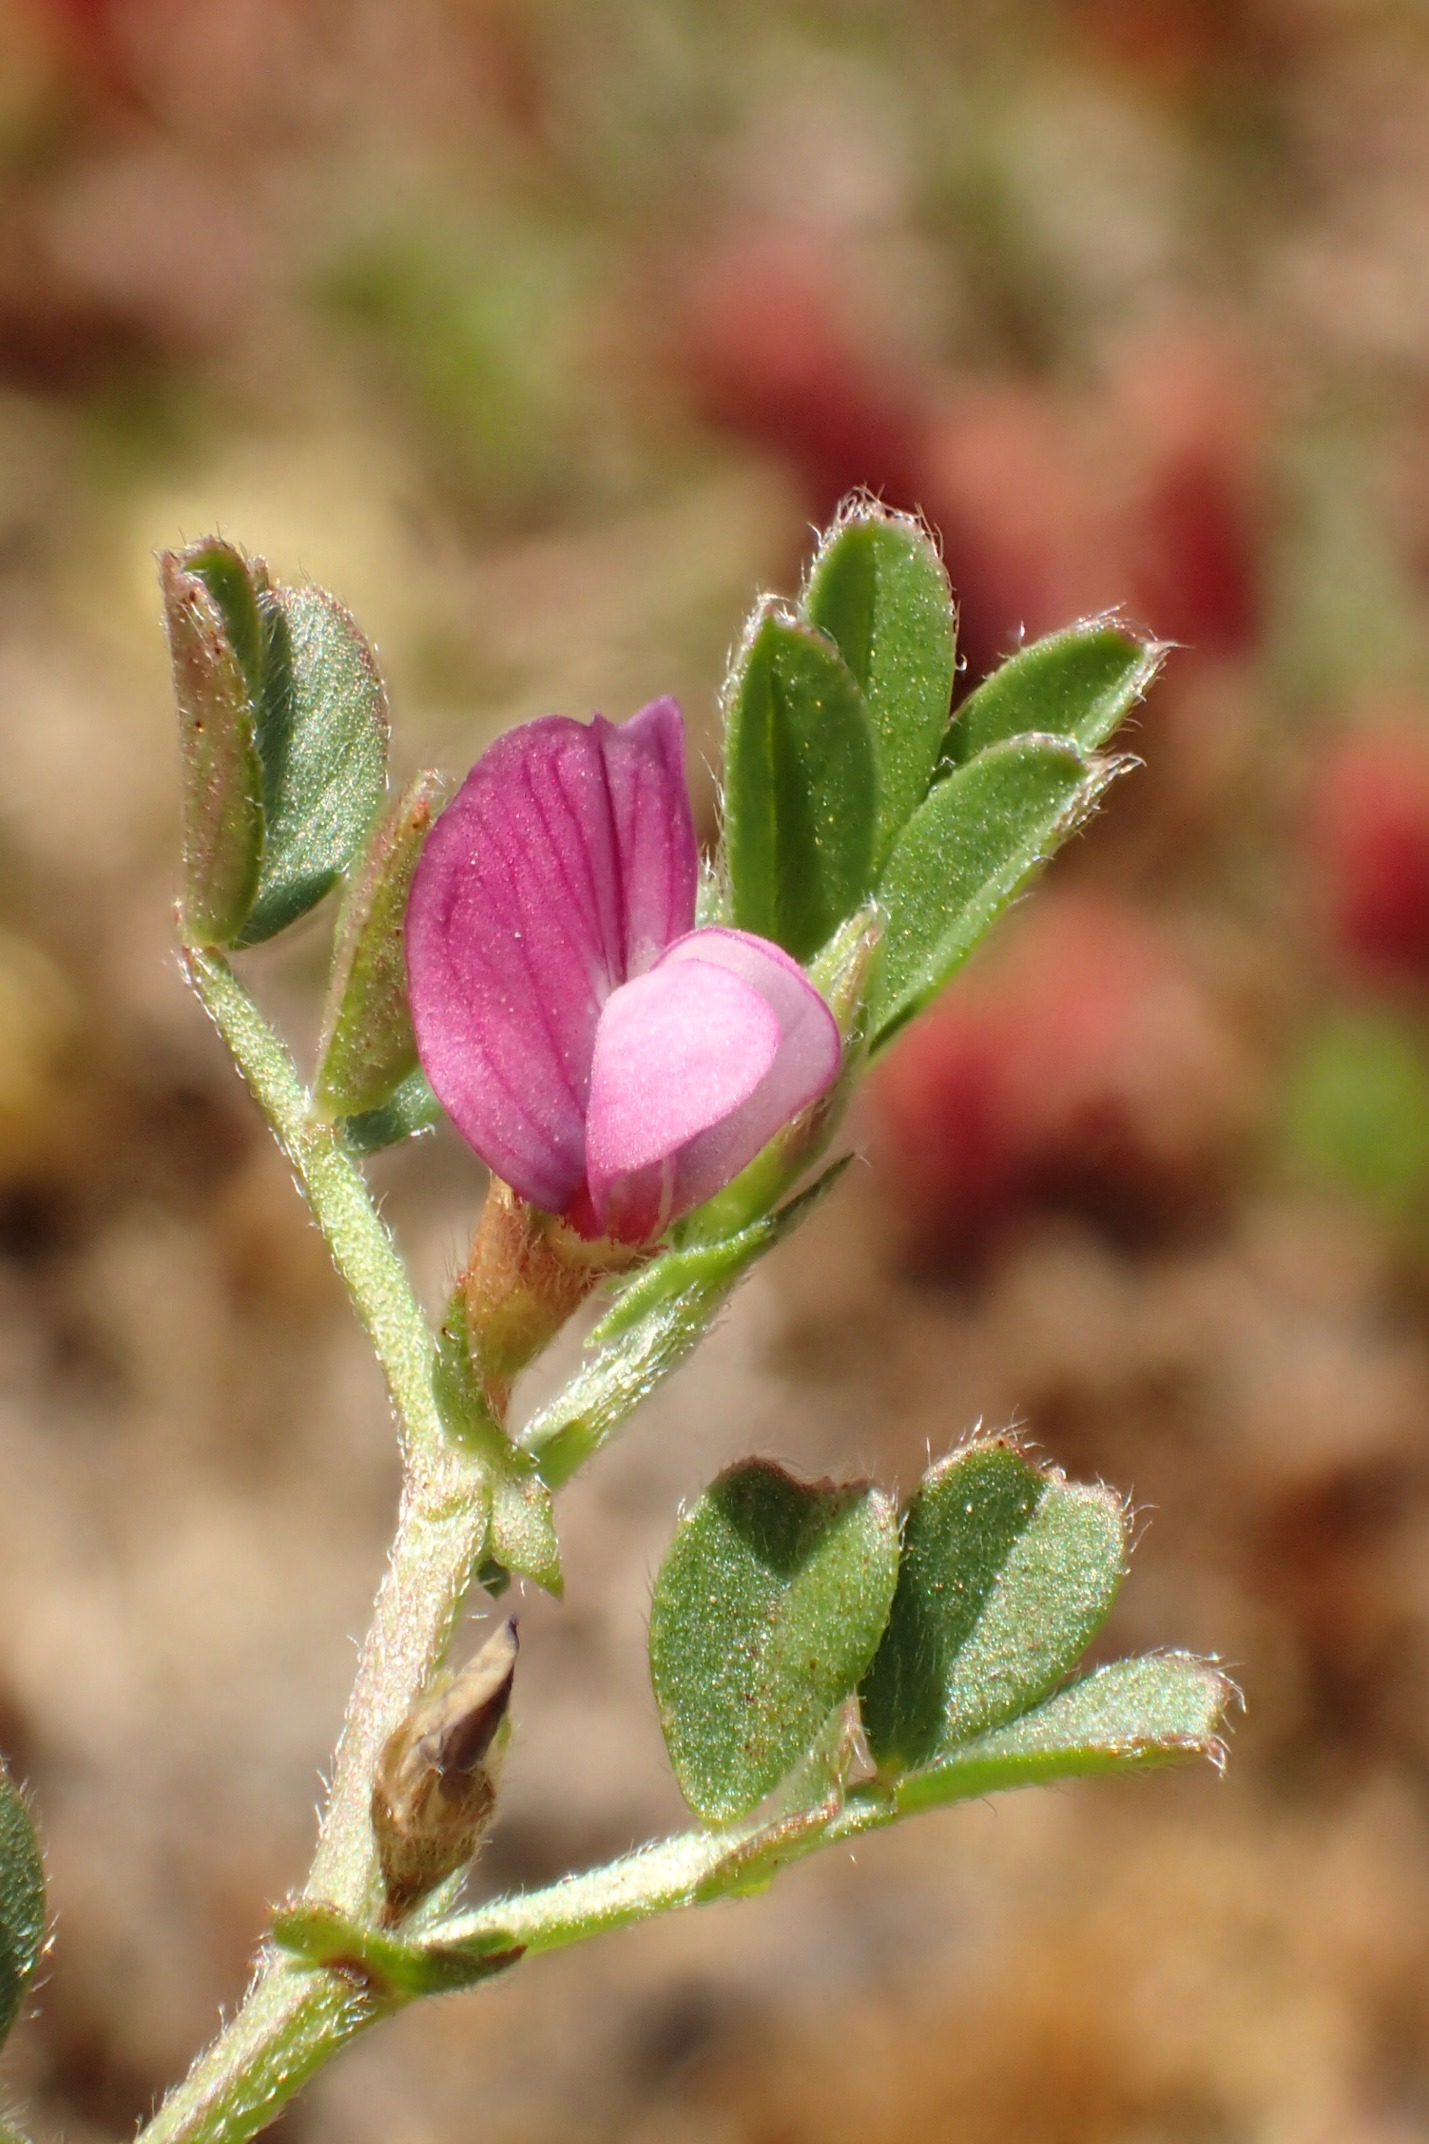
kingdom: Plantae
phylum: Tracheophyta
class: Magnoliopsida
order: Fabales
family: Fabaceae
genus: Vicia
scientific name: Vicia lathyroides
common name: Vår-vikke
